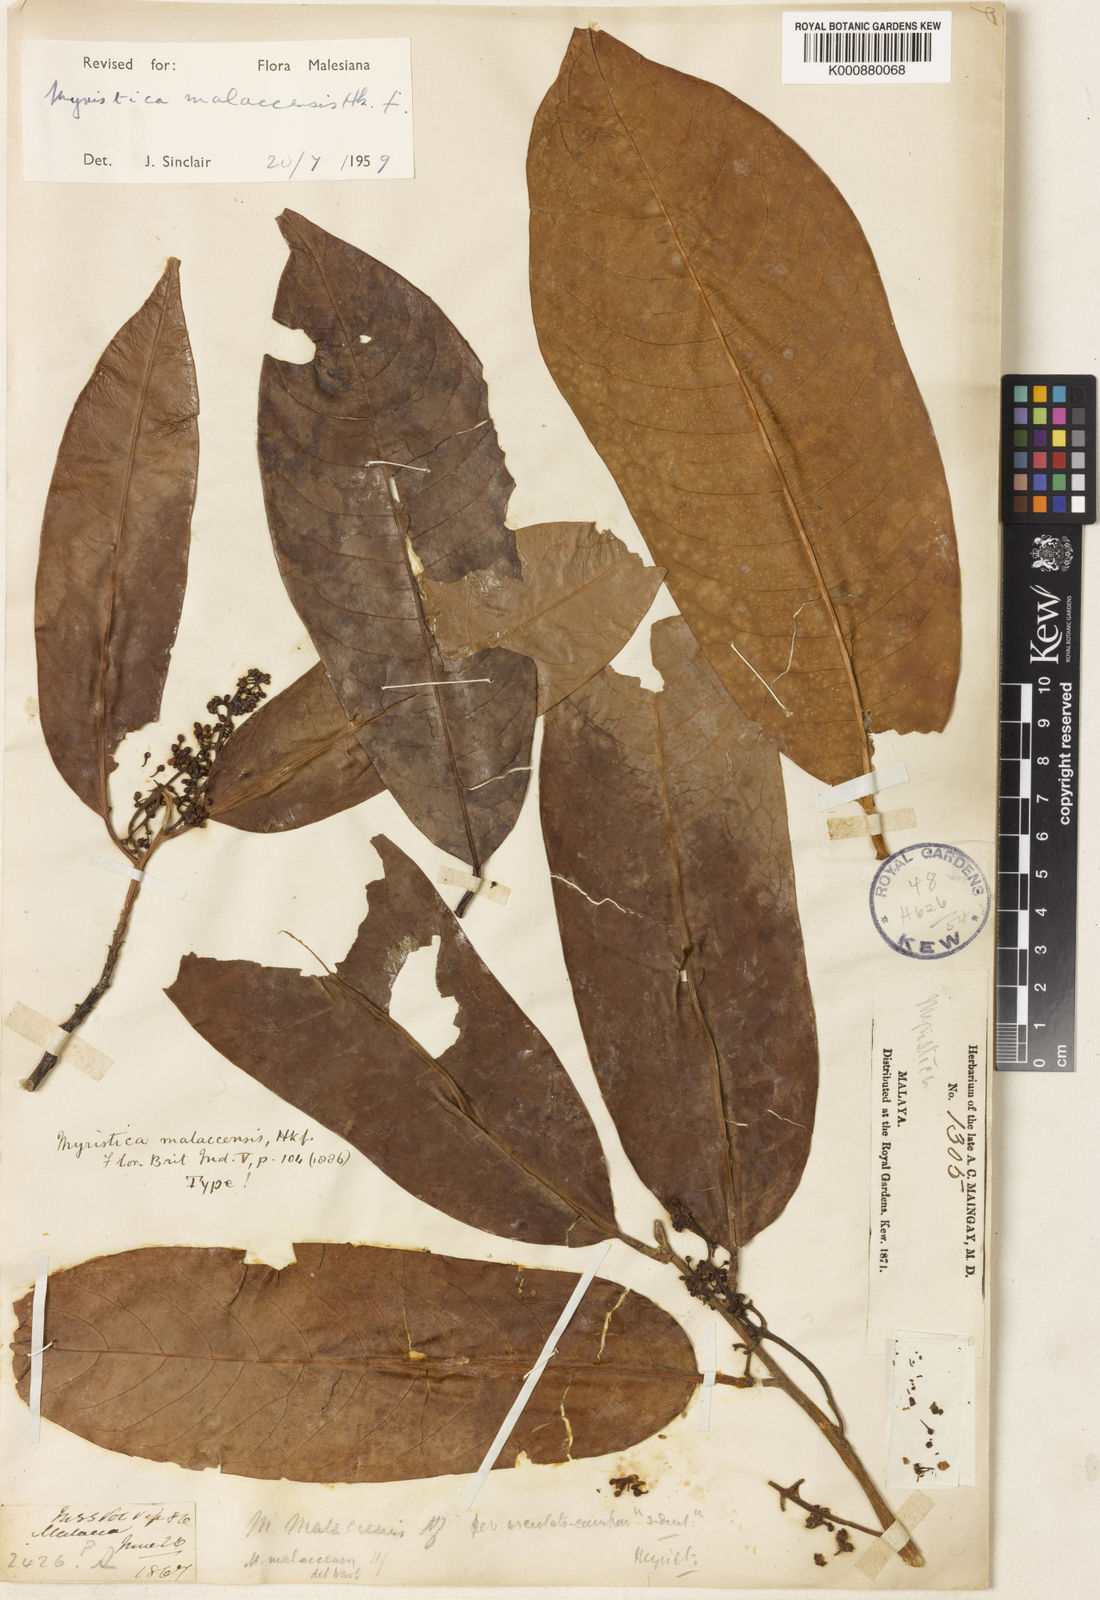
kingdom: Plantae
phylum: Tracheophyta
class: Magnoliopsida
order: Magnoliales
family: Myristicaceae
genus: Myristica
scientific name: Myristica malaccensis
